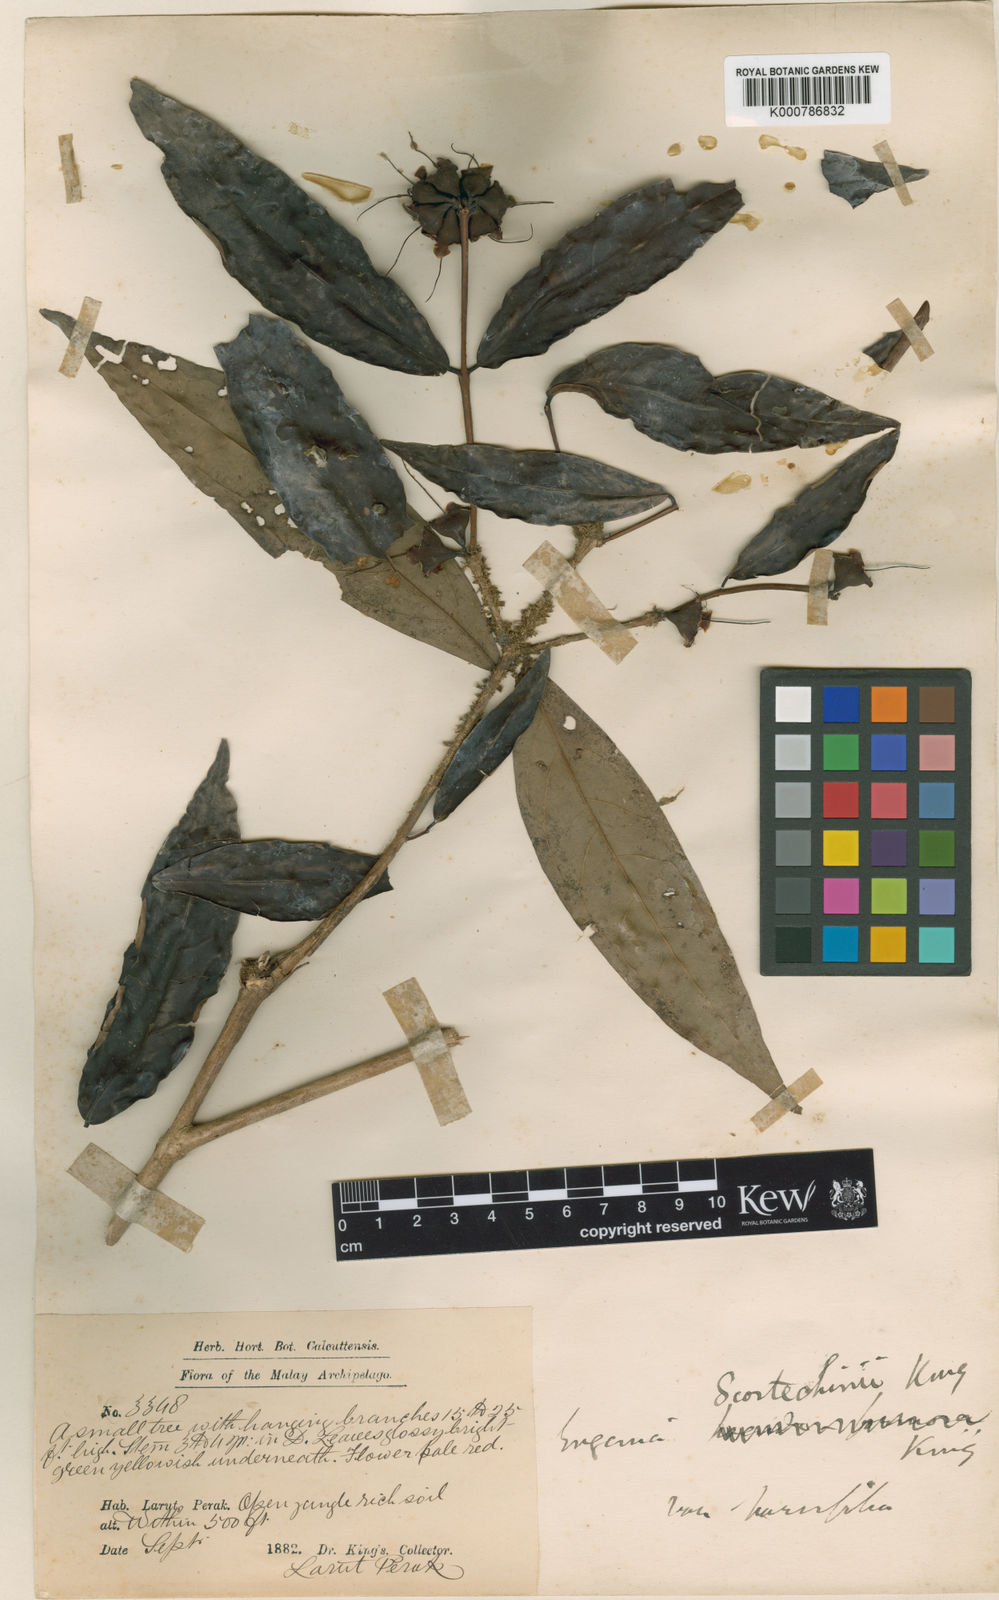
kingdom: Plantae
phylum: Tracheophyta
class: Magnoliopsida
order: Myrtales
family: Myrtaceae
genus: Syzygium
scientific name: Syzygium scortechinii
